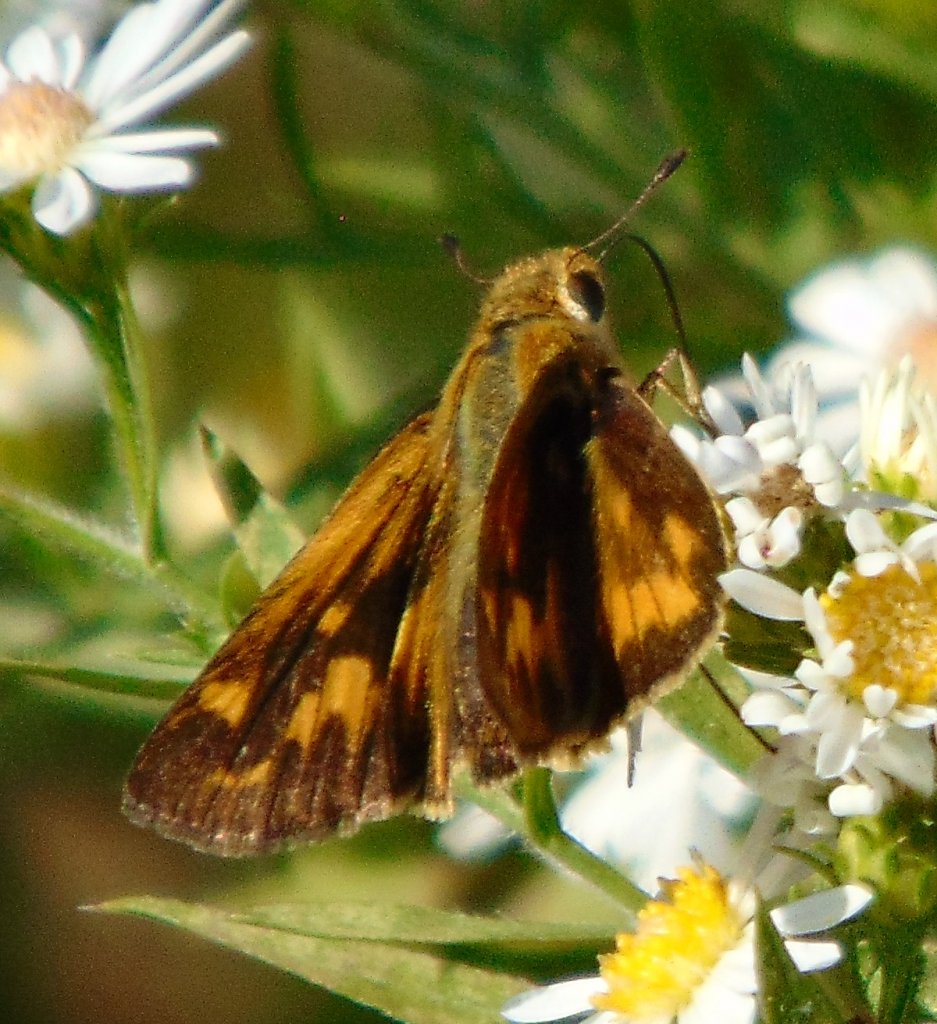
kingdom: Animalia
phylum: Arthropoda
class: Insecta
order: Lepidoptera
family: Hesperiidae
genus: Hylephila
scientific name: Hylephila phyleus
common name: Fiery Skipper
